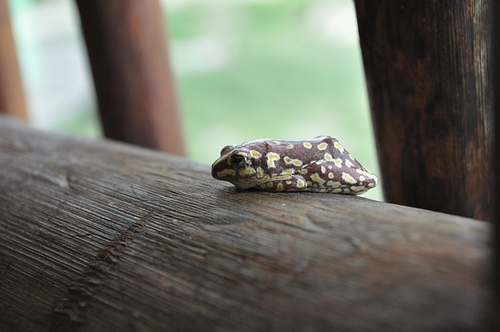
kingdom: Animalia
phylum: Chordata
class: Amphibia
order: Anura
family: Hyperoliidae
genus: Hyperolius
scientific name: Hyperolius parallelus
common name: Angolan reed frog
